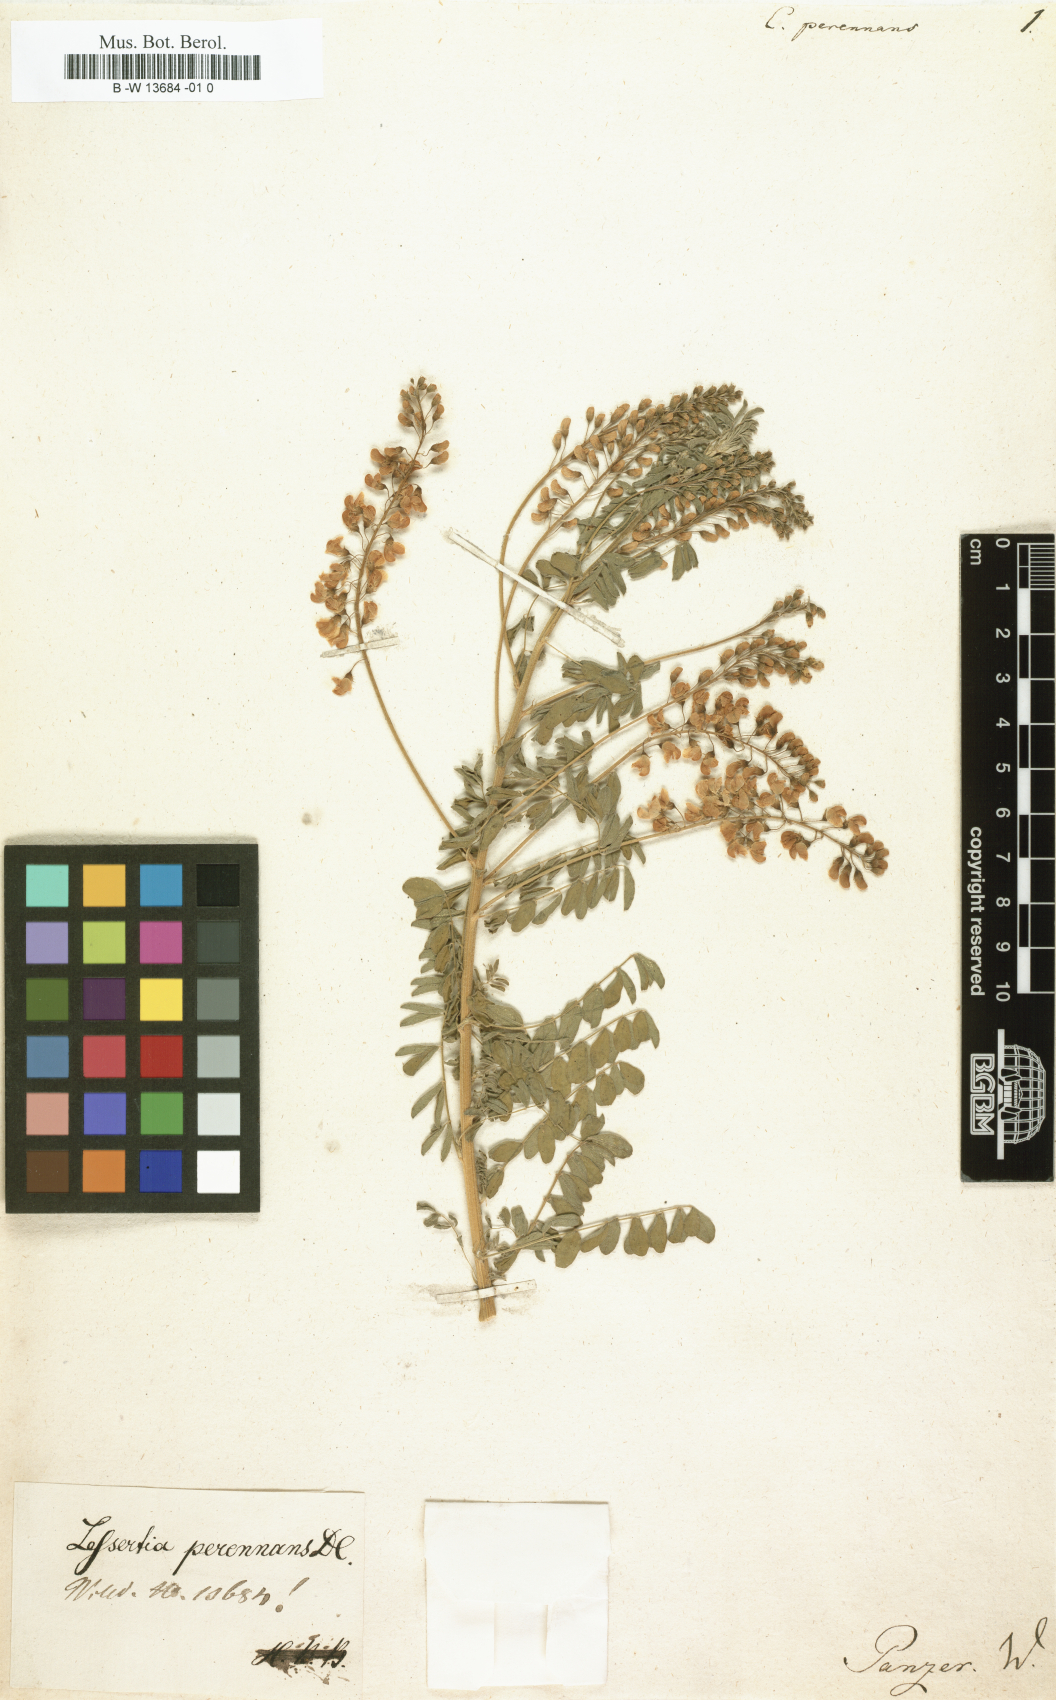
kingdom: Plantae
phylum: Tracheophyta
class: Magnoliopsida
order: Fabales
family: Fabaceae
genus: Lessertia
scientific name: Lessertia perennans
